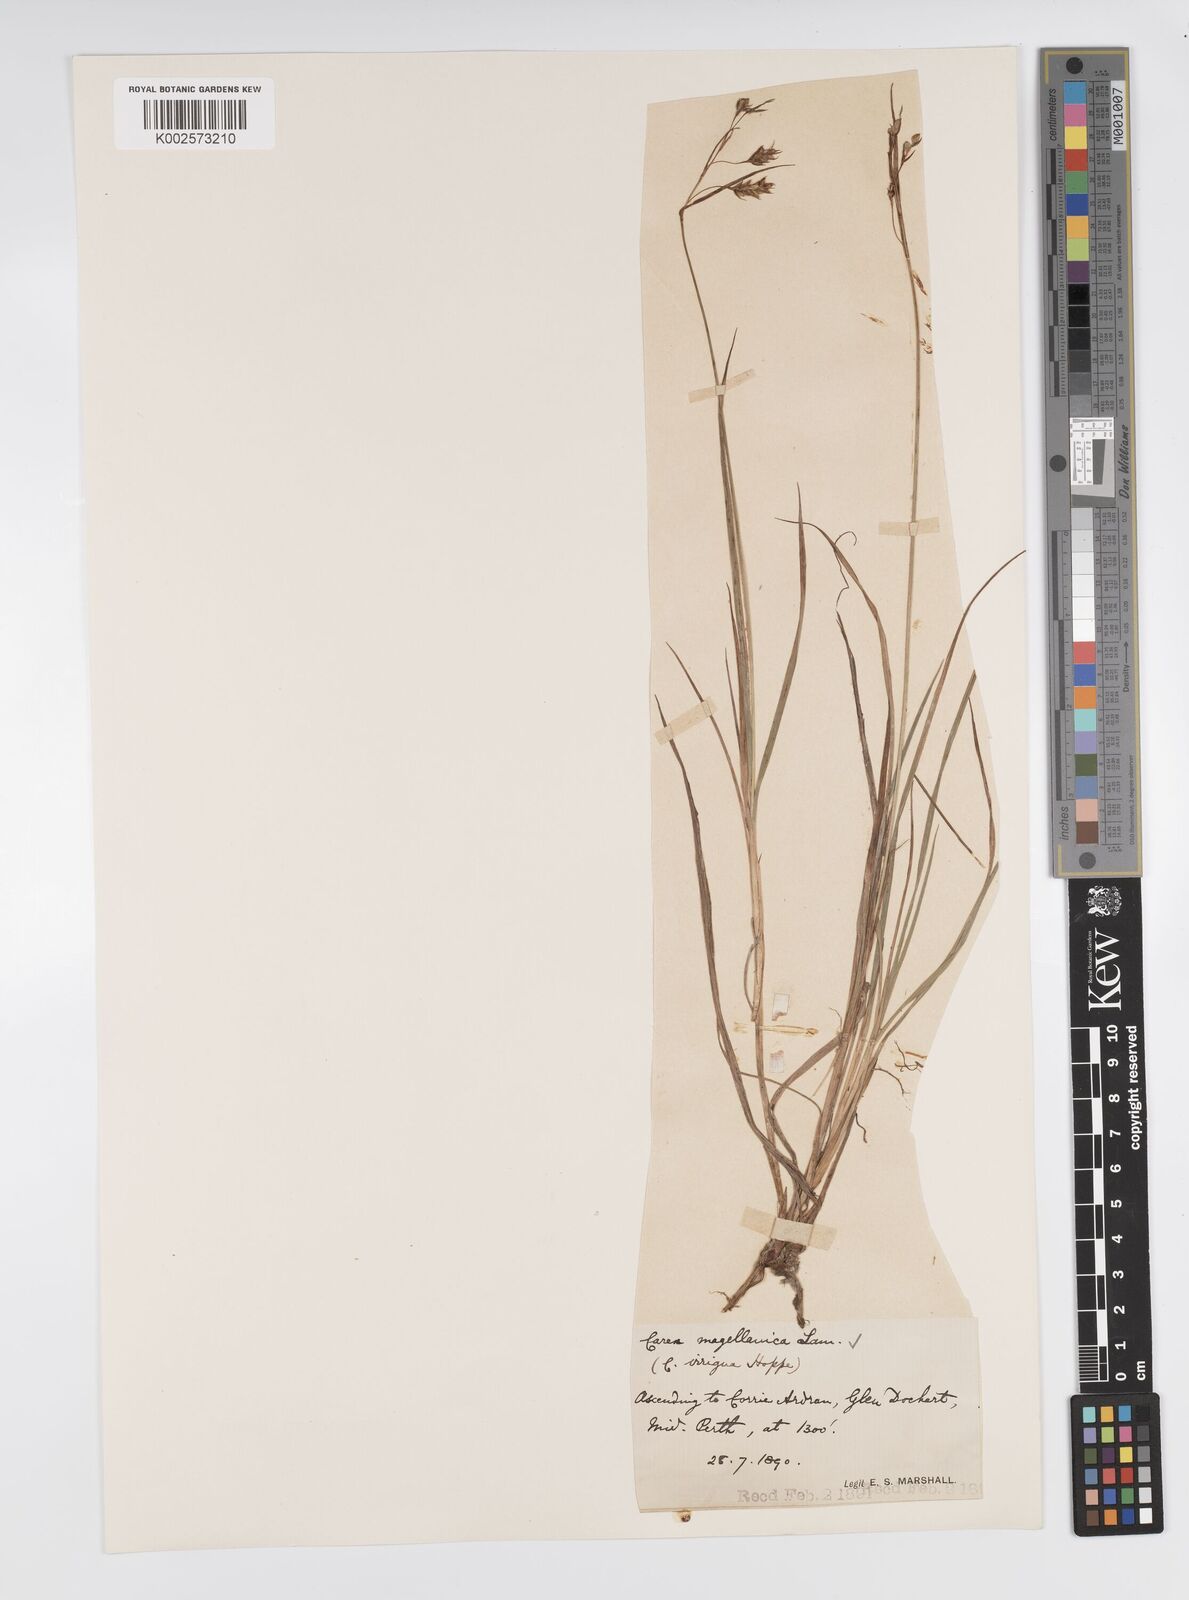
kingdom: Plantae
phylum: Tracheophyta
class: Liliopsida
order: Poales
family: Cyperaceae
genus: Carex
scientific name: Carex magellanica
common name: Bog sedge
